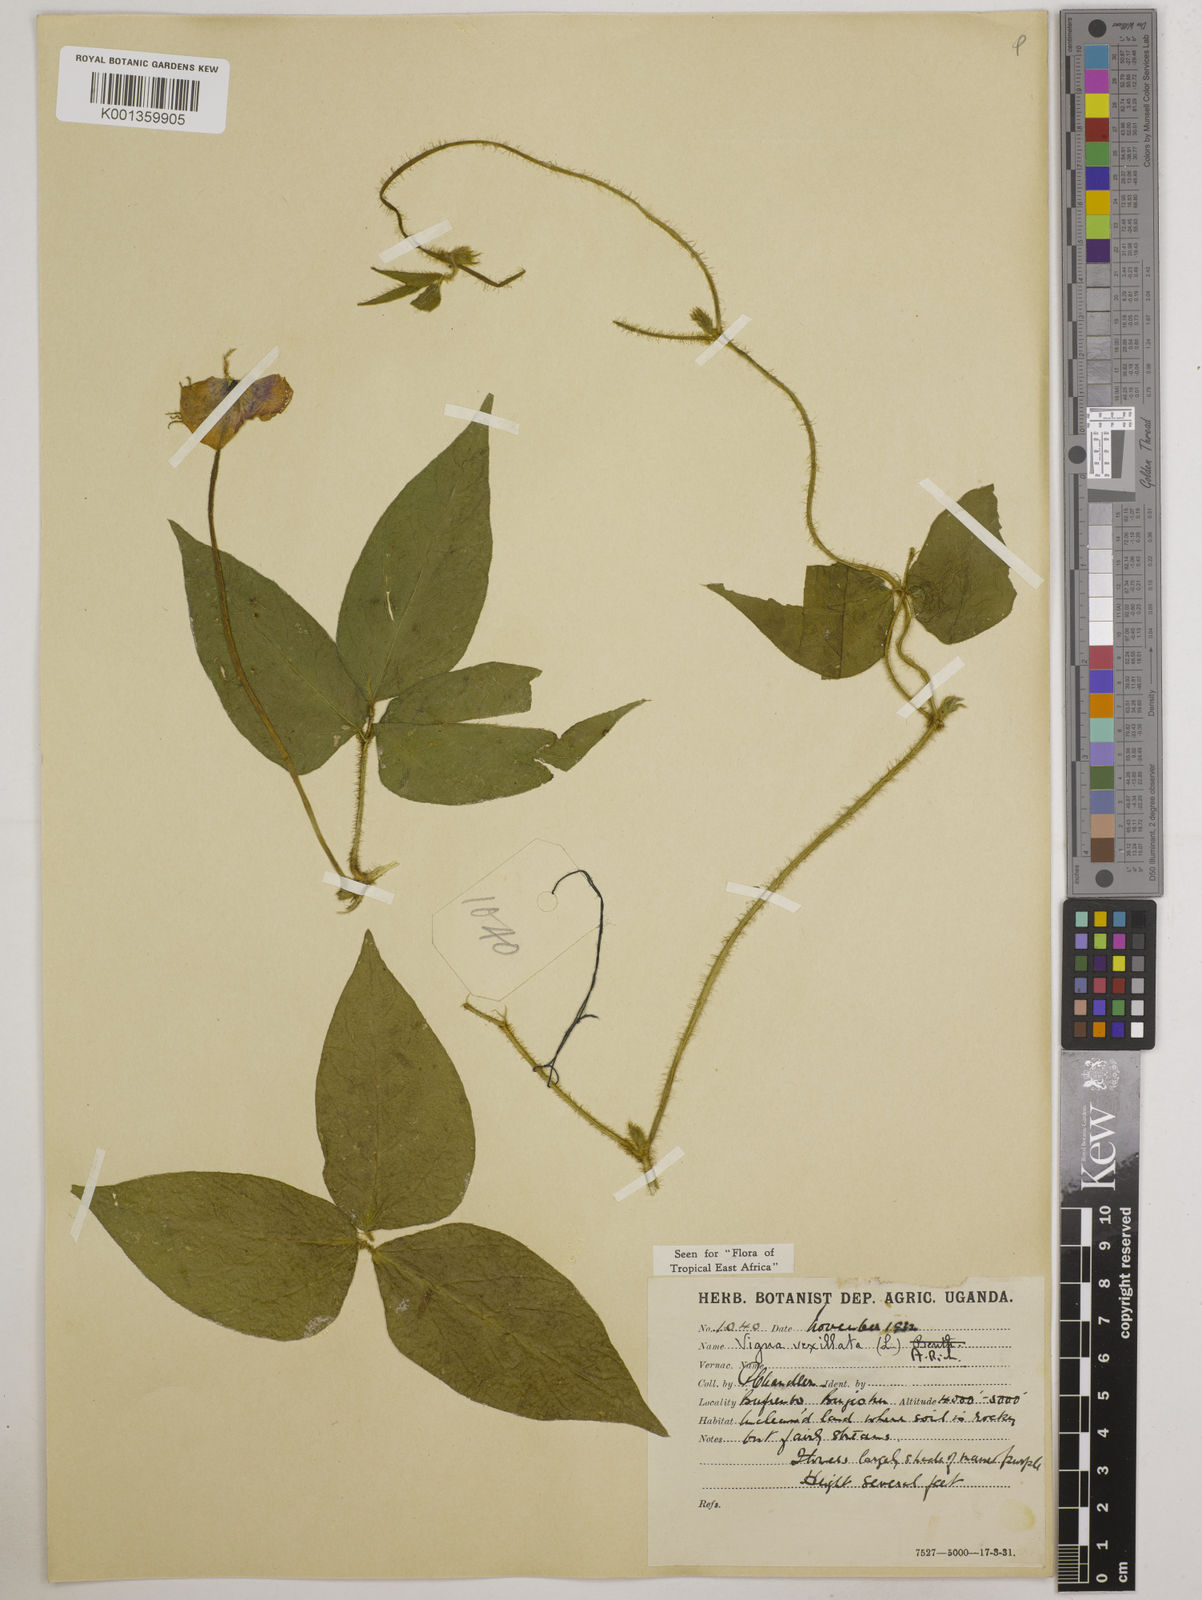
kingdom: Plantae
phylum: Tracheophyta
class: Magnoliopsida
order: Fabales
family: Fabaceae
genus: Vigna
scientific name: Vigna vexillata
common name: Zombi pea
